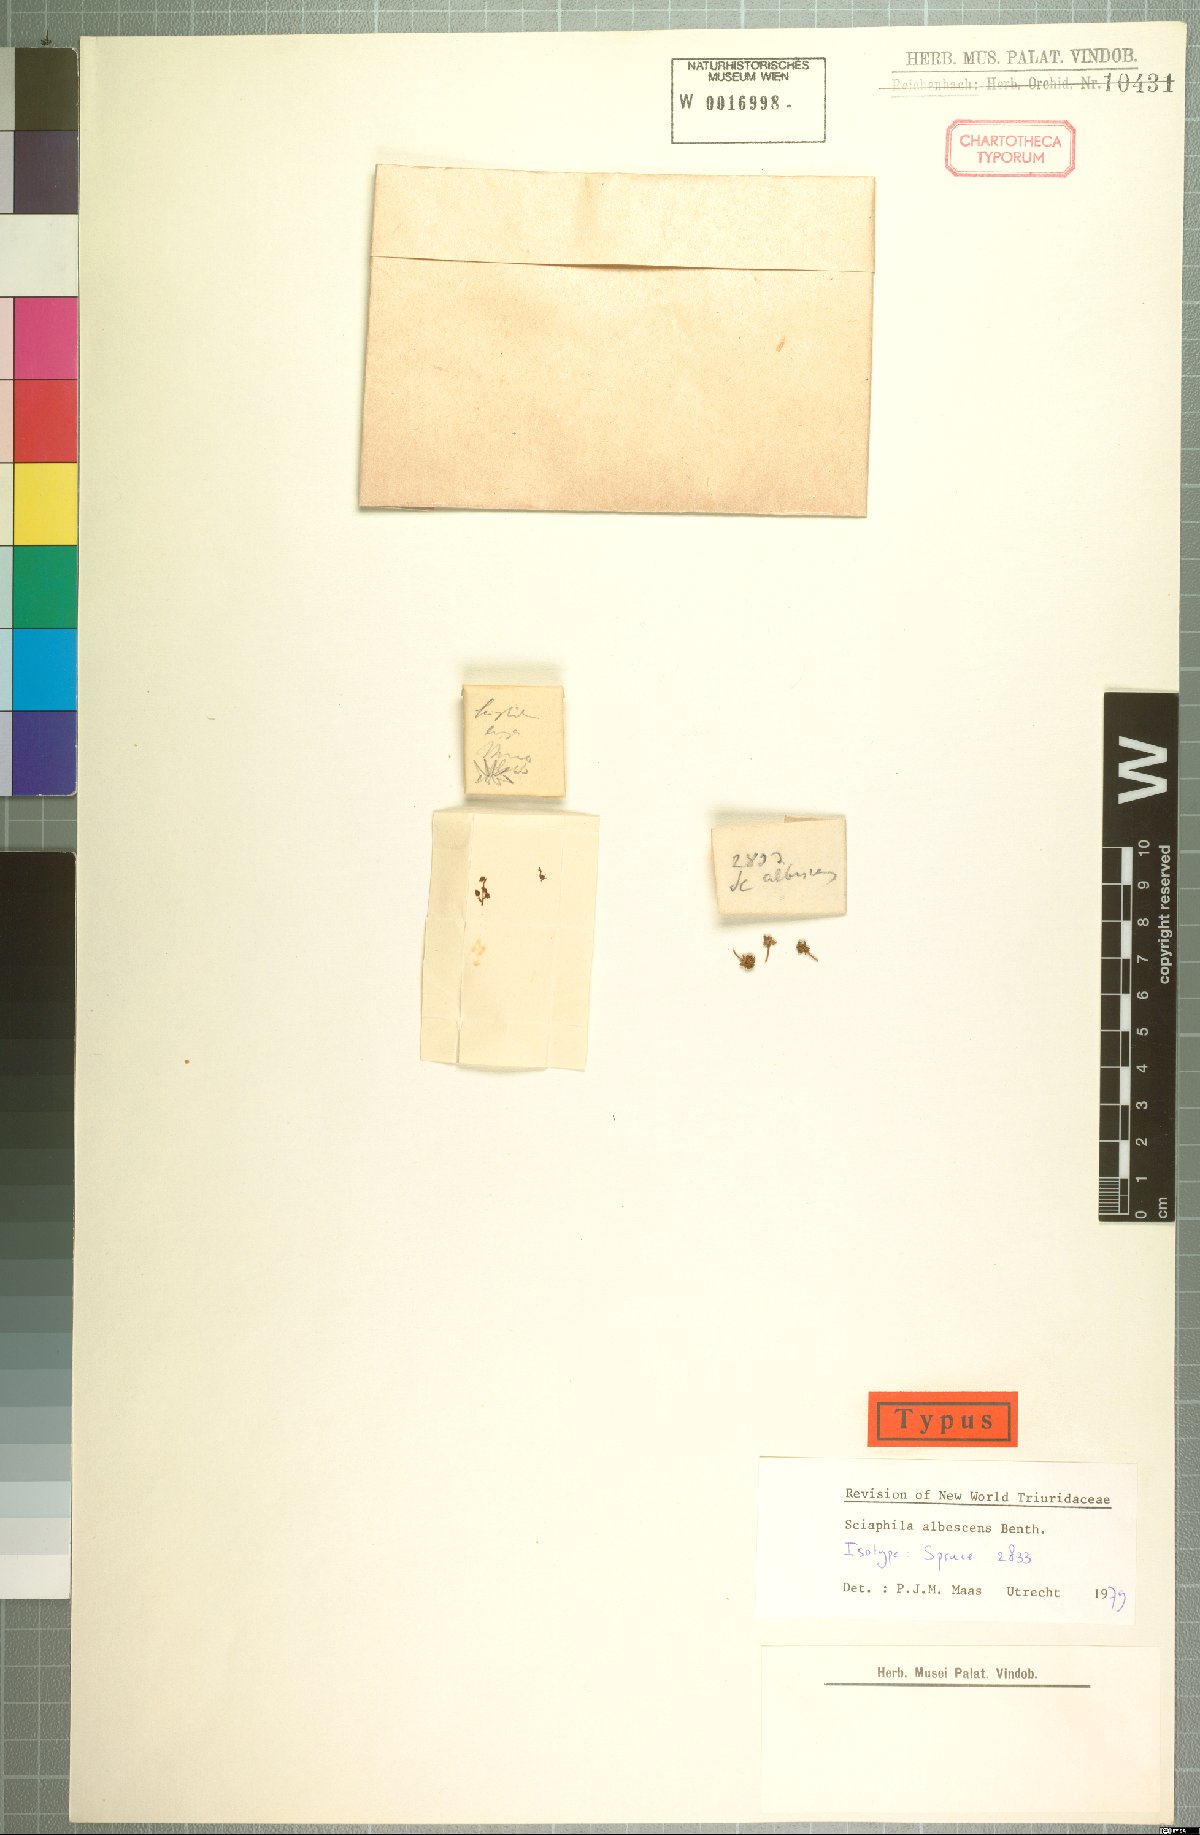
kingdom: Plantae
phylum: Tracheophyta
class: Liliopsida
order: Pandanales
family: Triuridaceae
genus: Sciaphila
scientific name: Sciaphila albescens
